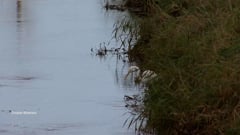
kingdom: Animalia
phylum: Chordata
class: Aves
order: Pelecaniformes
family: Ardeidae
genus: Ardea
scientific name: Ardea alba
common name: Great egret
